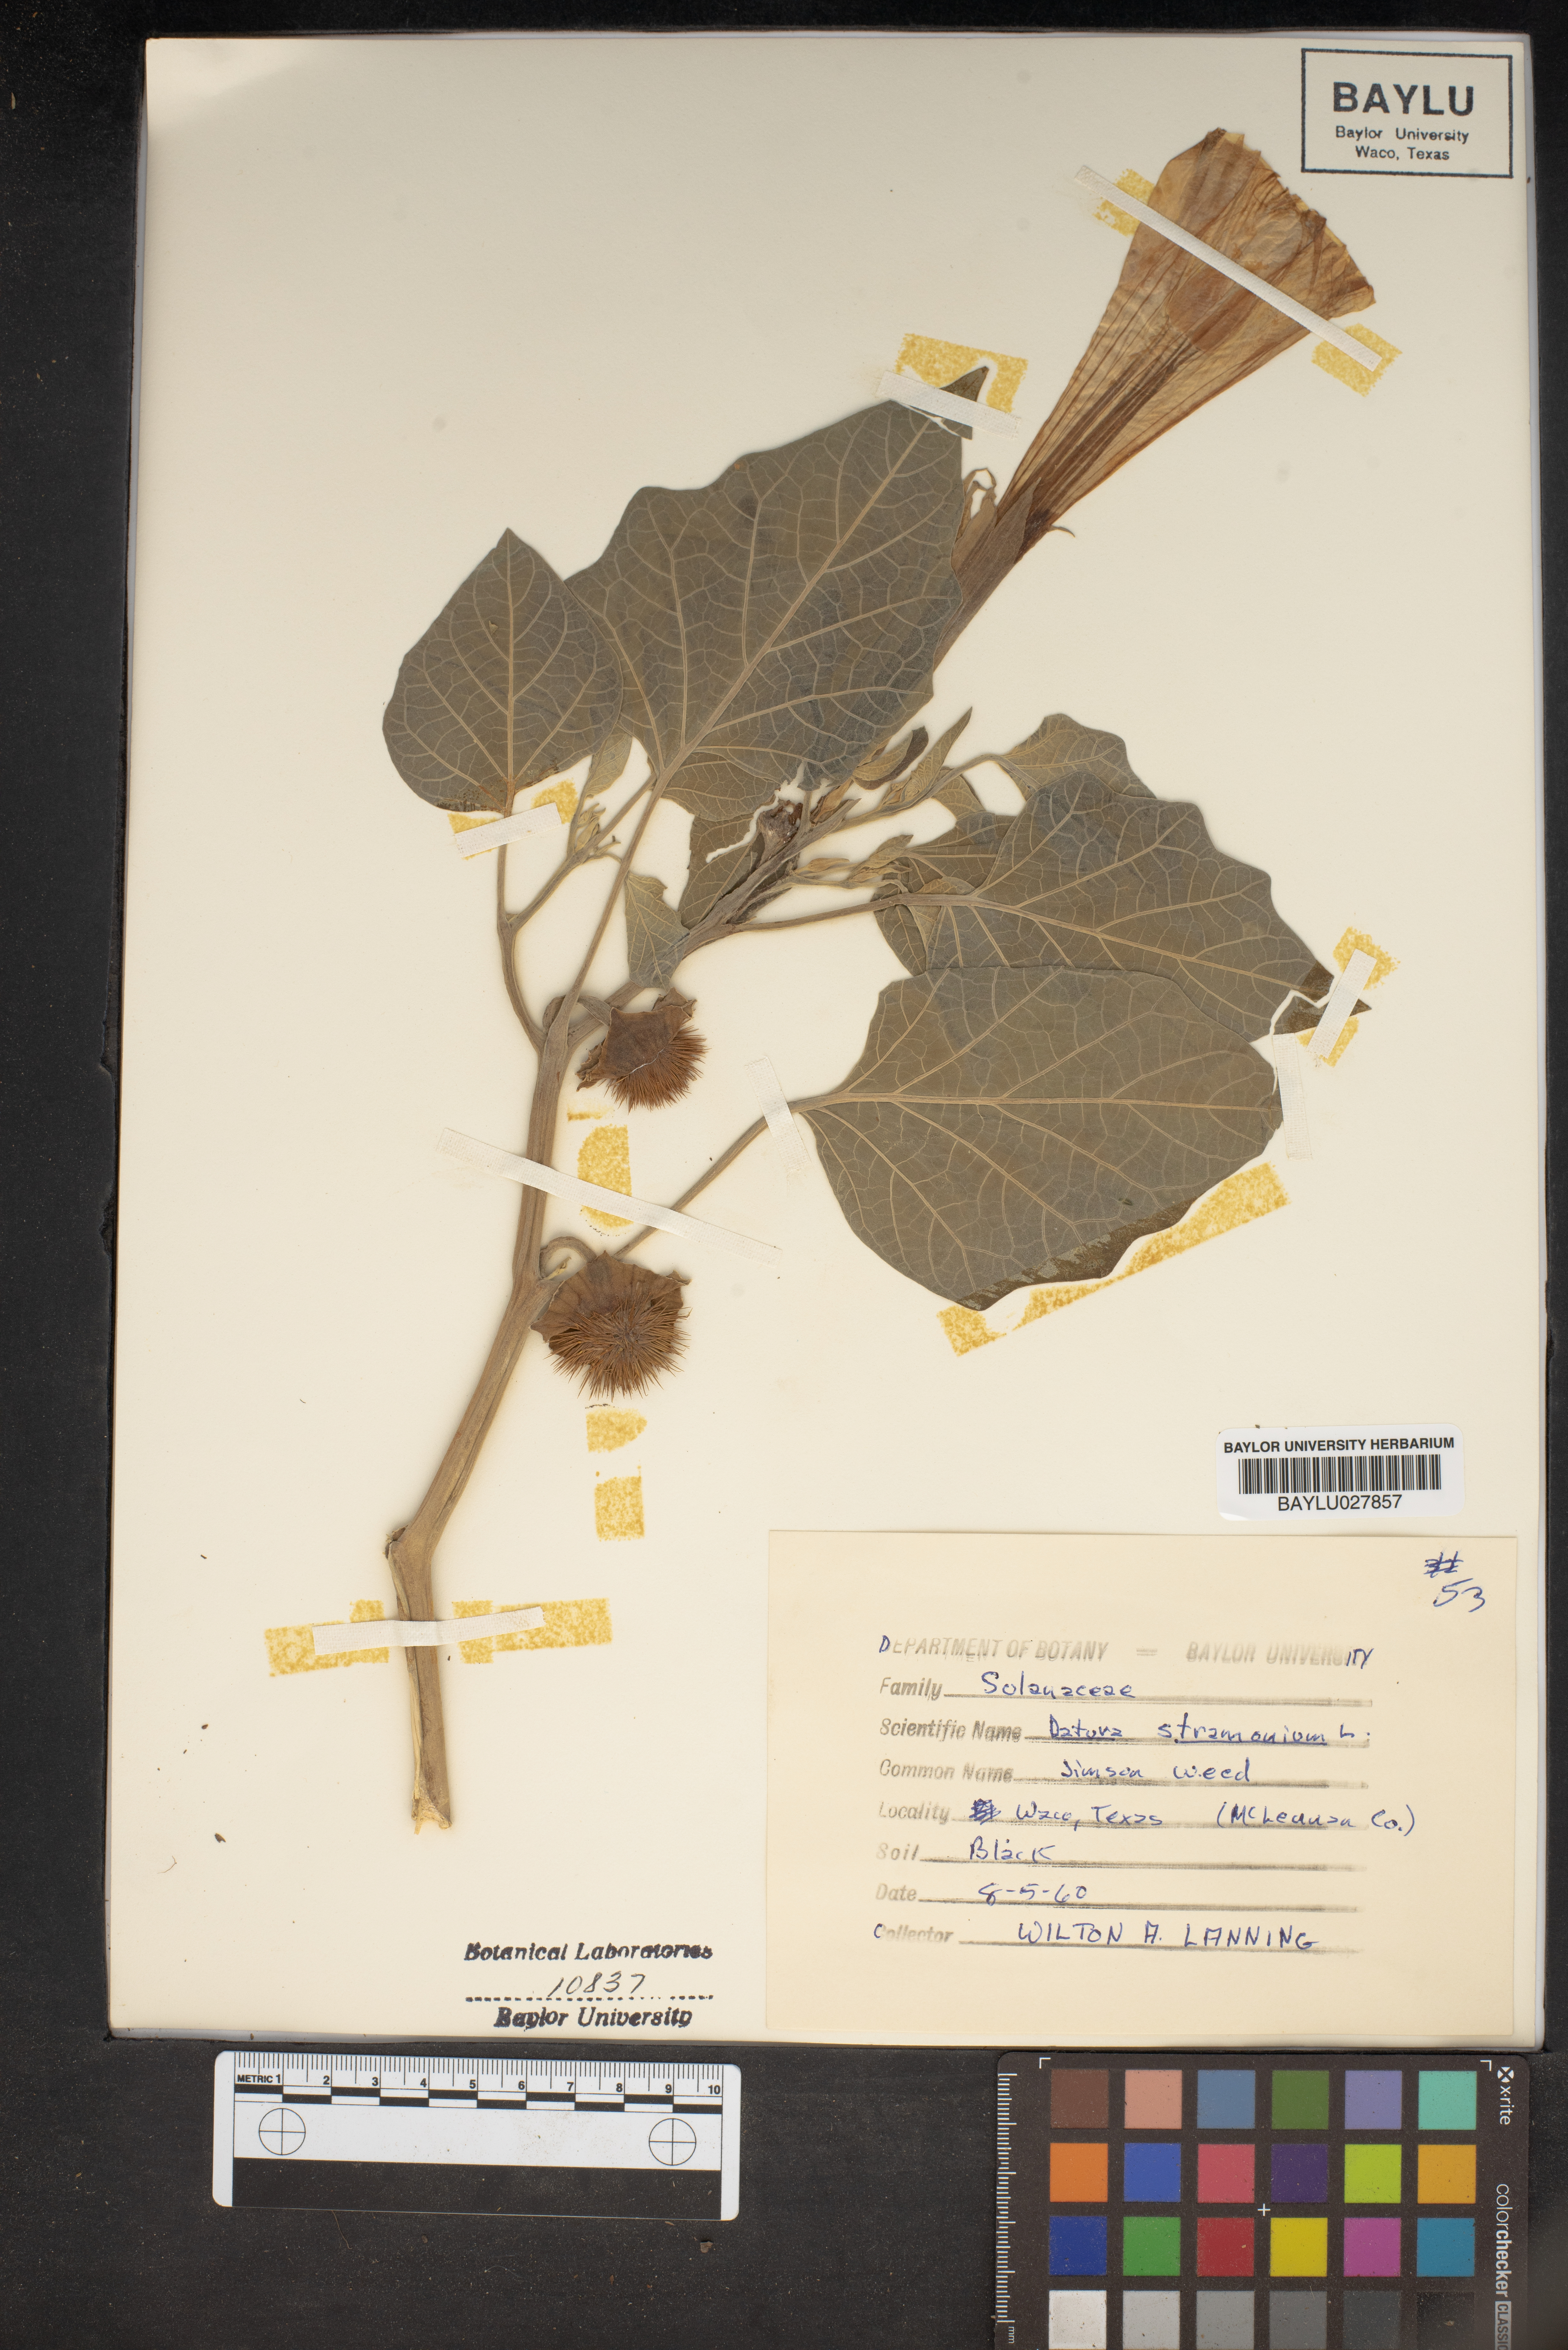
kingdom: Plantae
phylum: Tracheophyta
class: Magnoliopsida
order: Solanales
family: Solanaceae
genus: Datura
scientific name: Datura stramonium
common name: Thorn-apple
